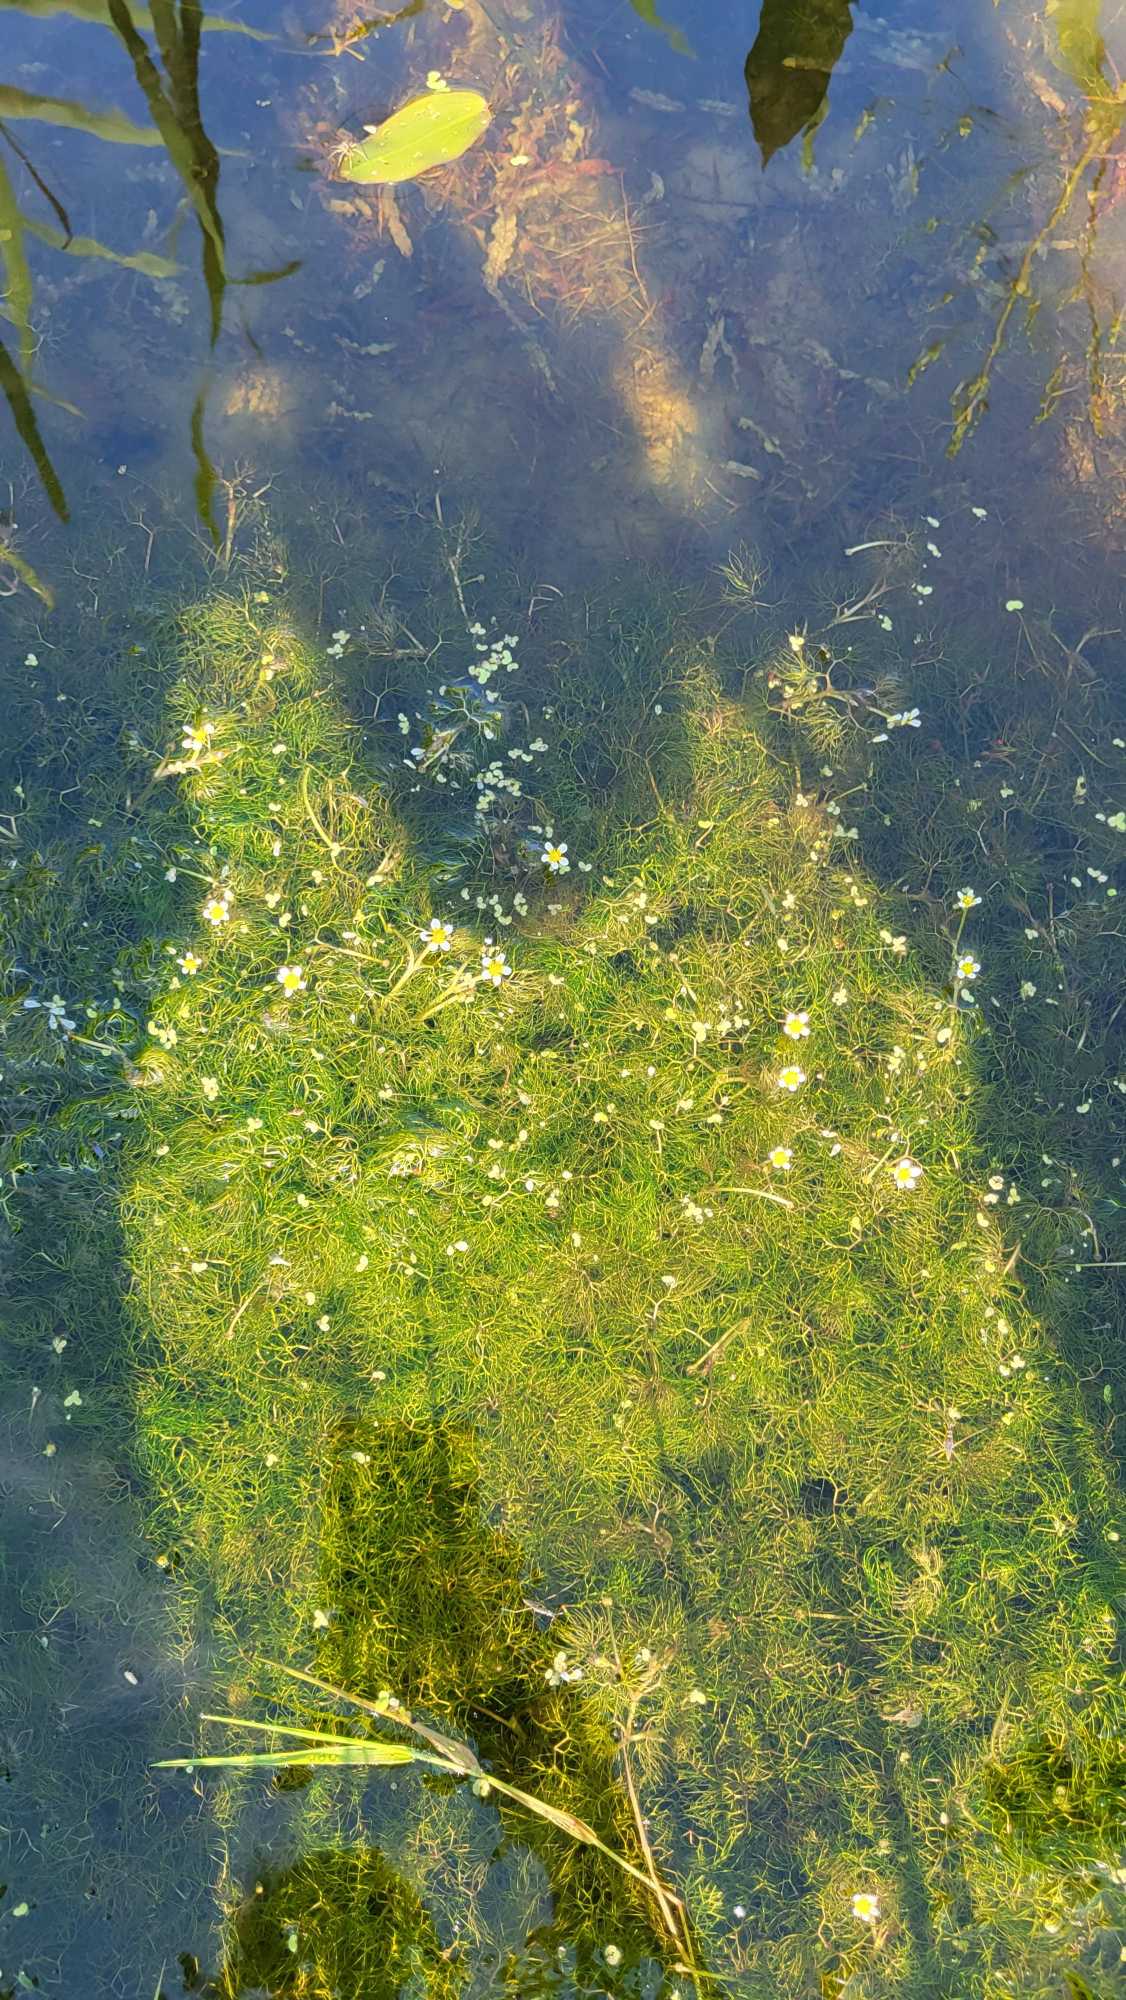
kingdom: Plantae
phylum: Tracheophyta
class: Magnoliopsida
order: Ranunculales
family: Ranunculaceae
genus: Ranunculus
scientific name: Ranunculus
